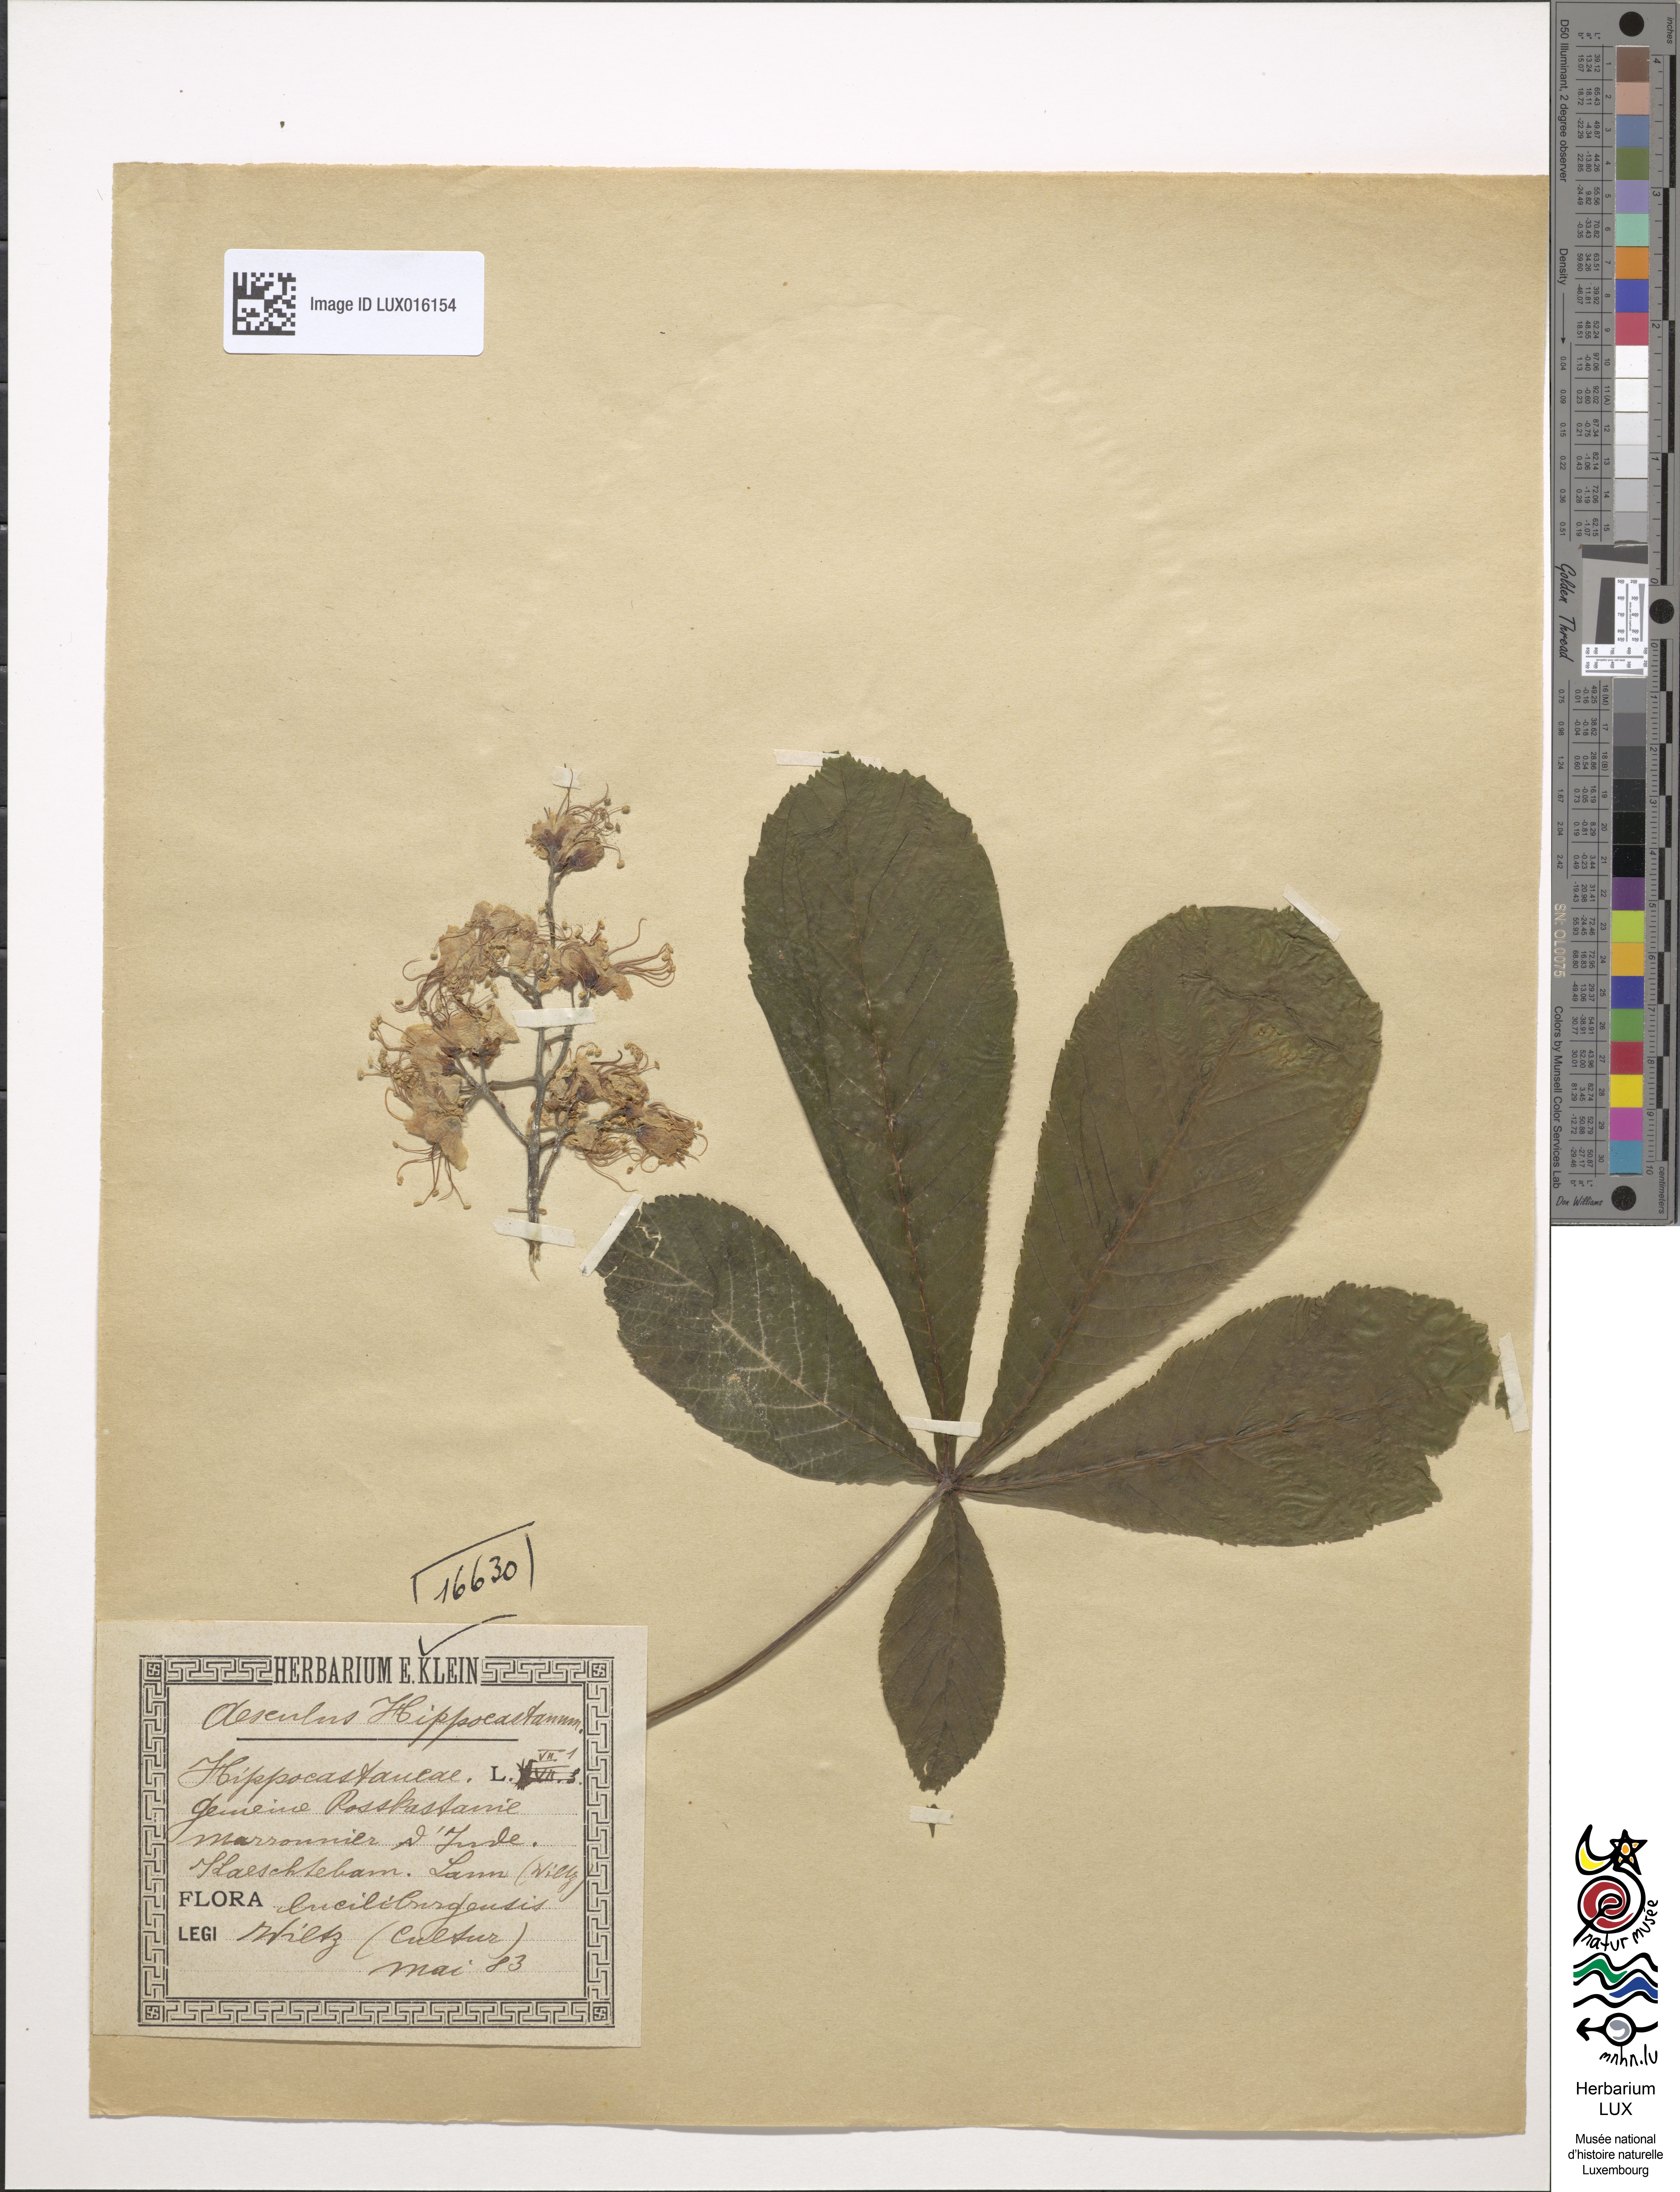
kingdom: Plantae
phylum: Tracheophyta
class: Magnoliopsida
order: Sapindales
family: Sapindaceae
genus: Aesculus
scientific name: Aesculus hippocastanum
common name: Horse-chestnut
